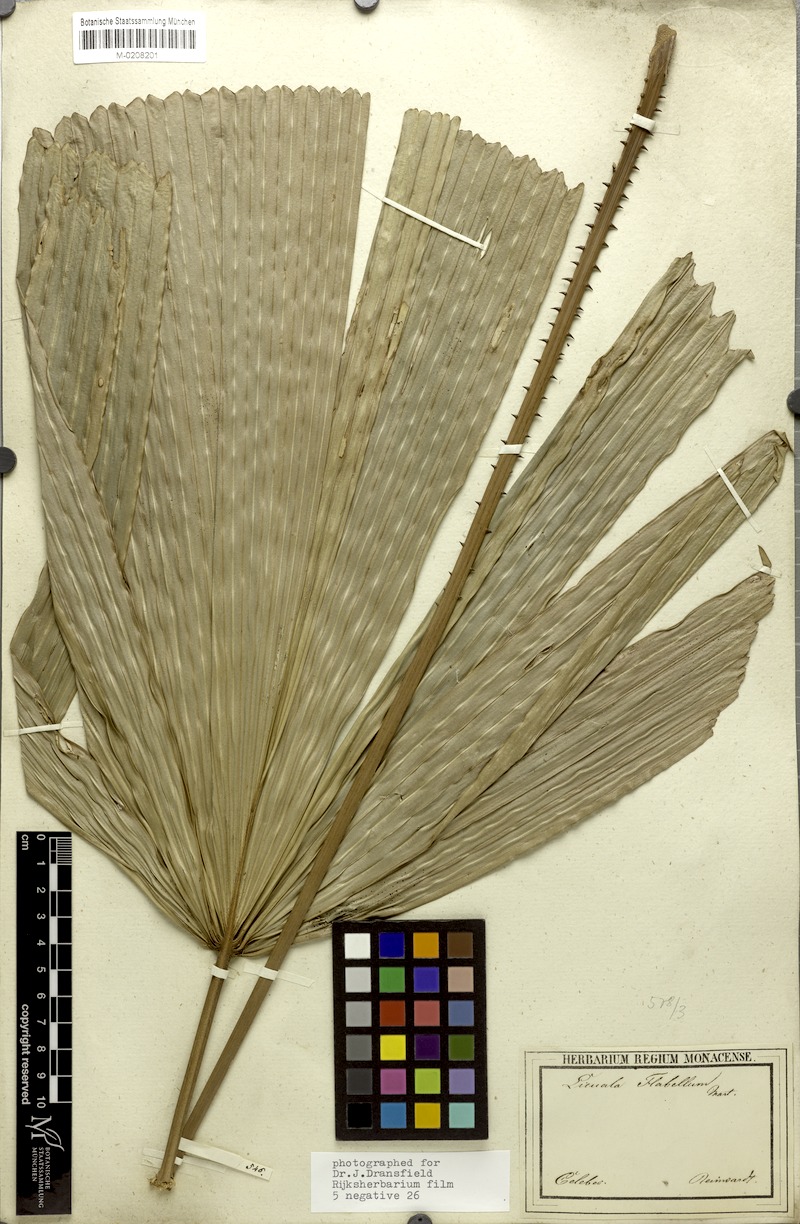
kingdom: Plantae
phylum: Tracheophyta
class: Liliopsida
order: Arecales
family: Arecaceae
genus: Lanonia
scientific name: Lanonia gracilis
